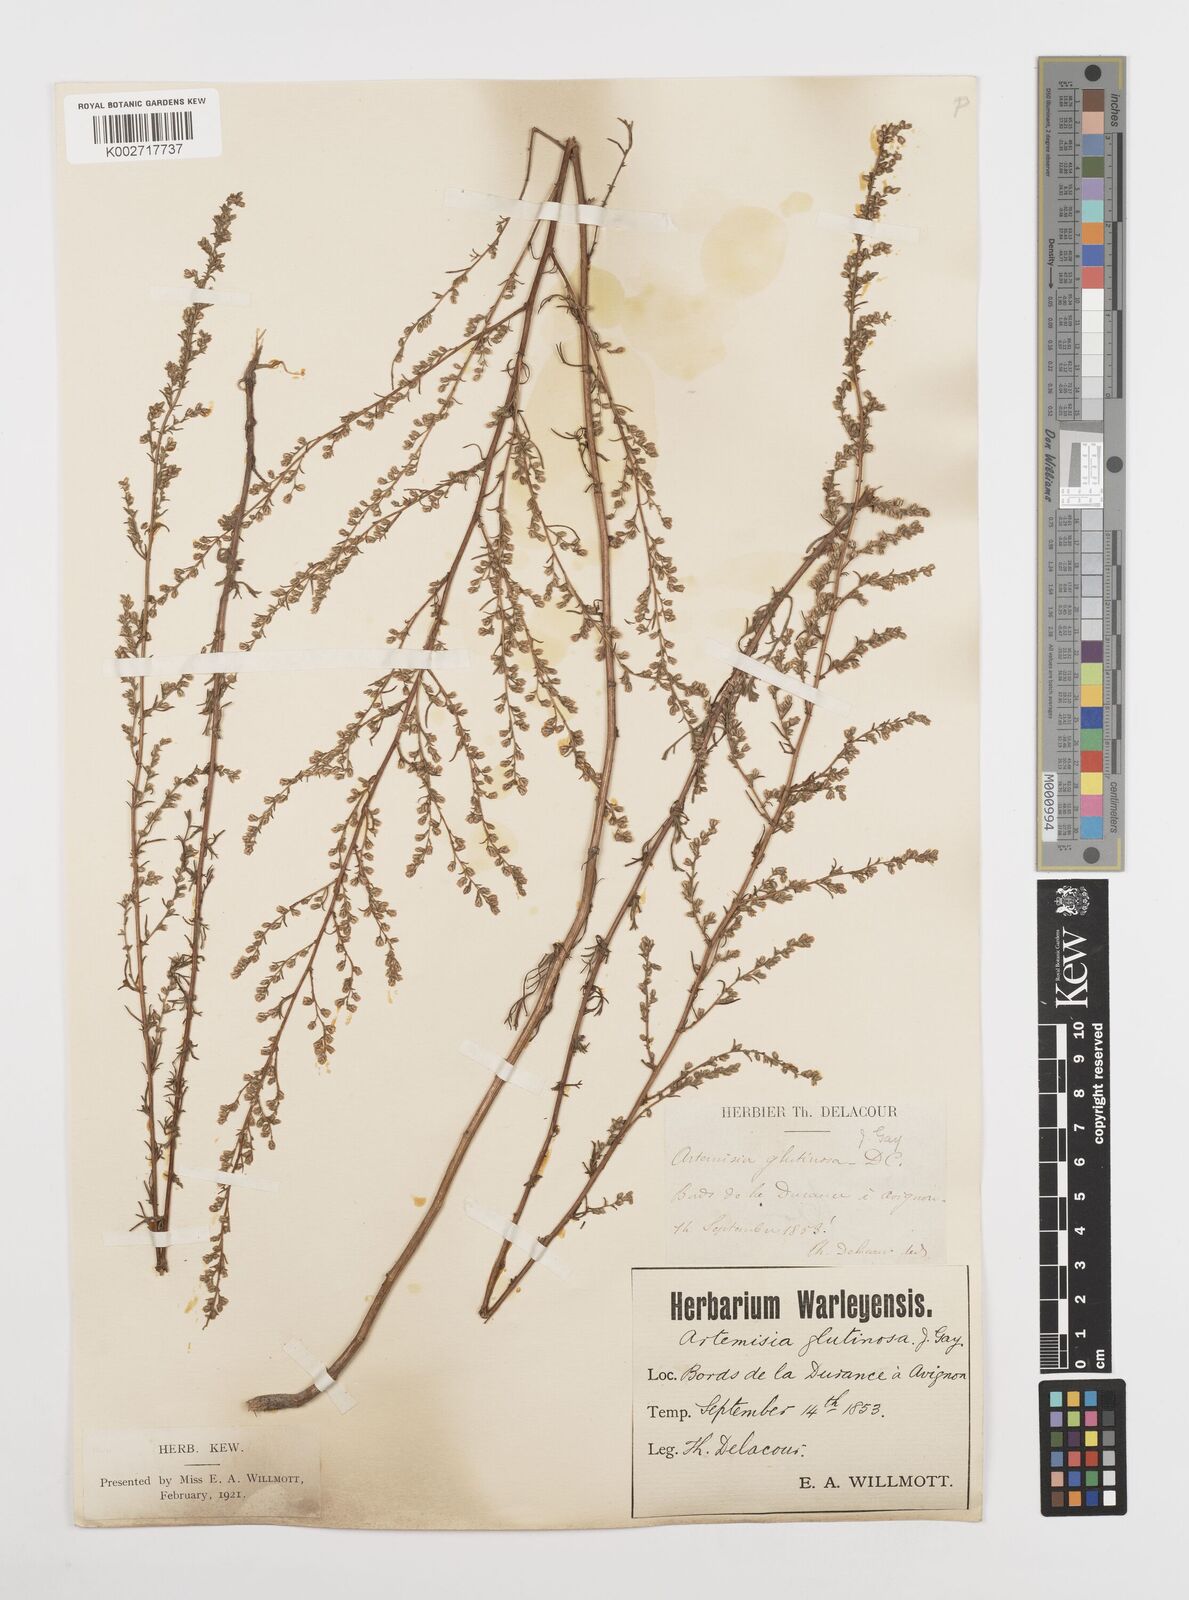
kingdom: Plantae
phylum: Tracheophyta
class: Magnoliopsida
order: Asterales
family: Asteraceae
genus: Artemisia
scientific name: Artemisia campestris
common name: Field wormwood
